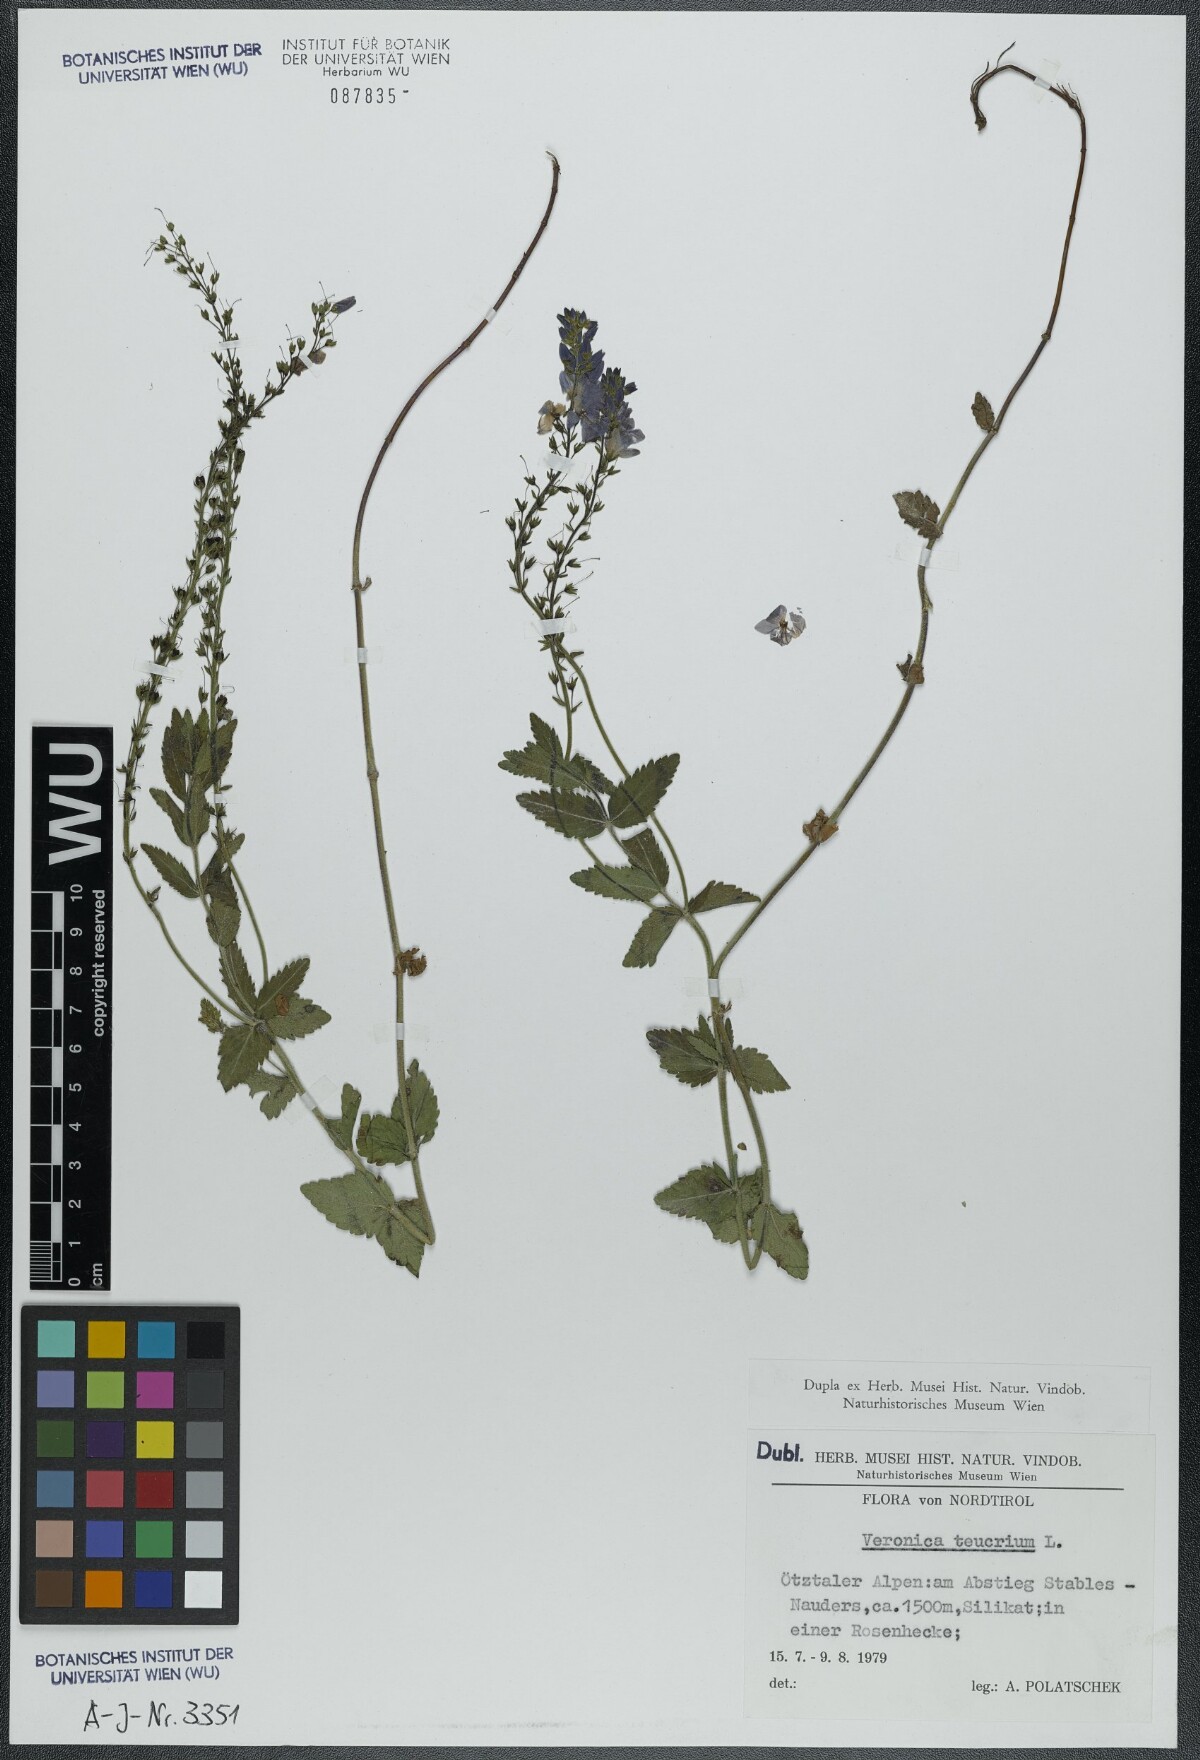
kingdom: Plantae
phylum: Tracheophyta
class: Magnoliopsida
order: Lamiales
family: Plantaginaceae
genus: Veronica
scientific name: Veronica teucrium
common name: Large speedwell
